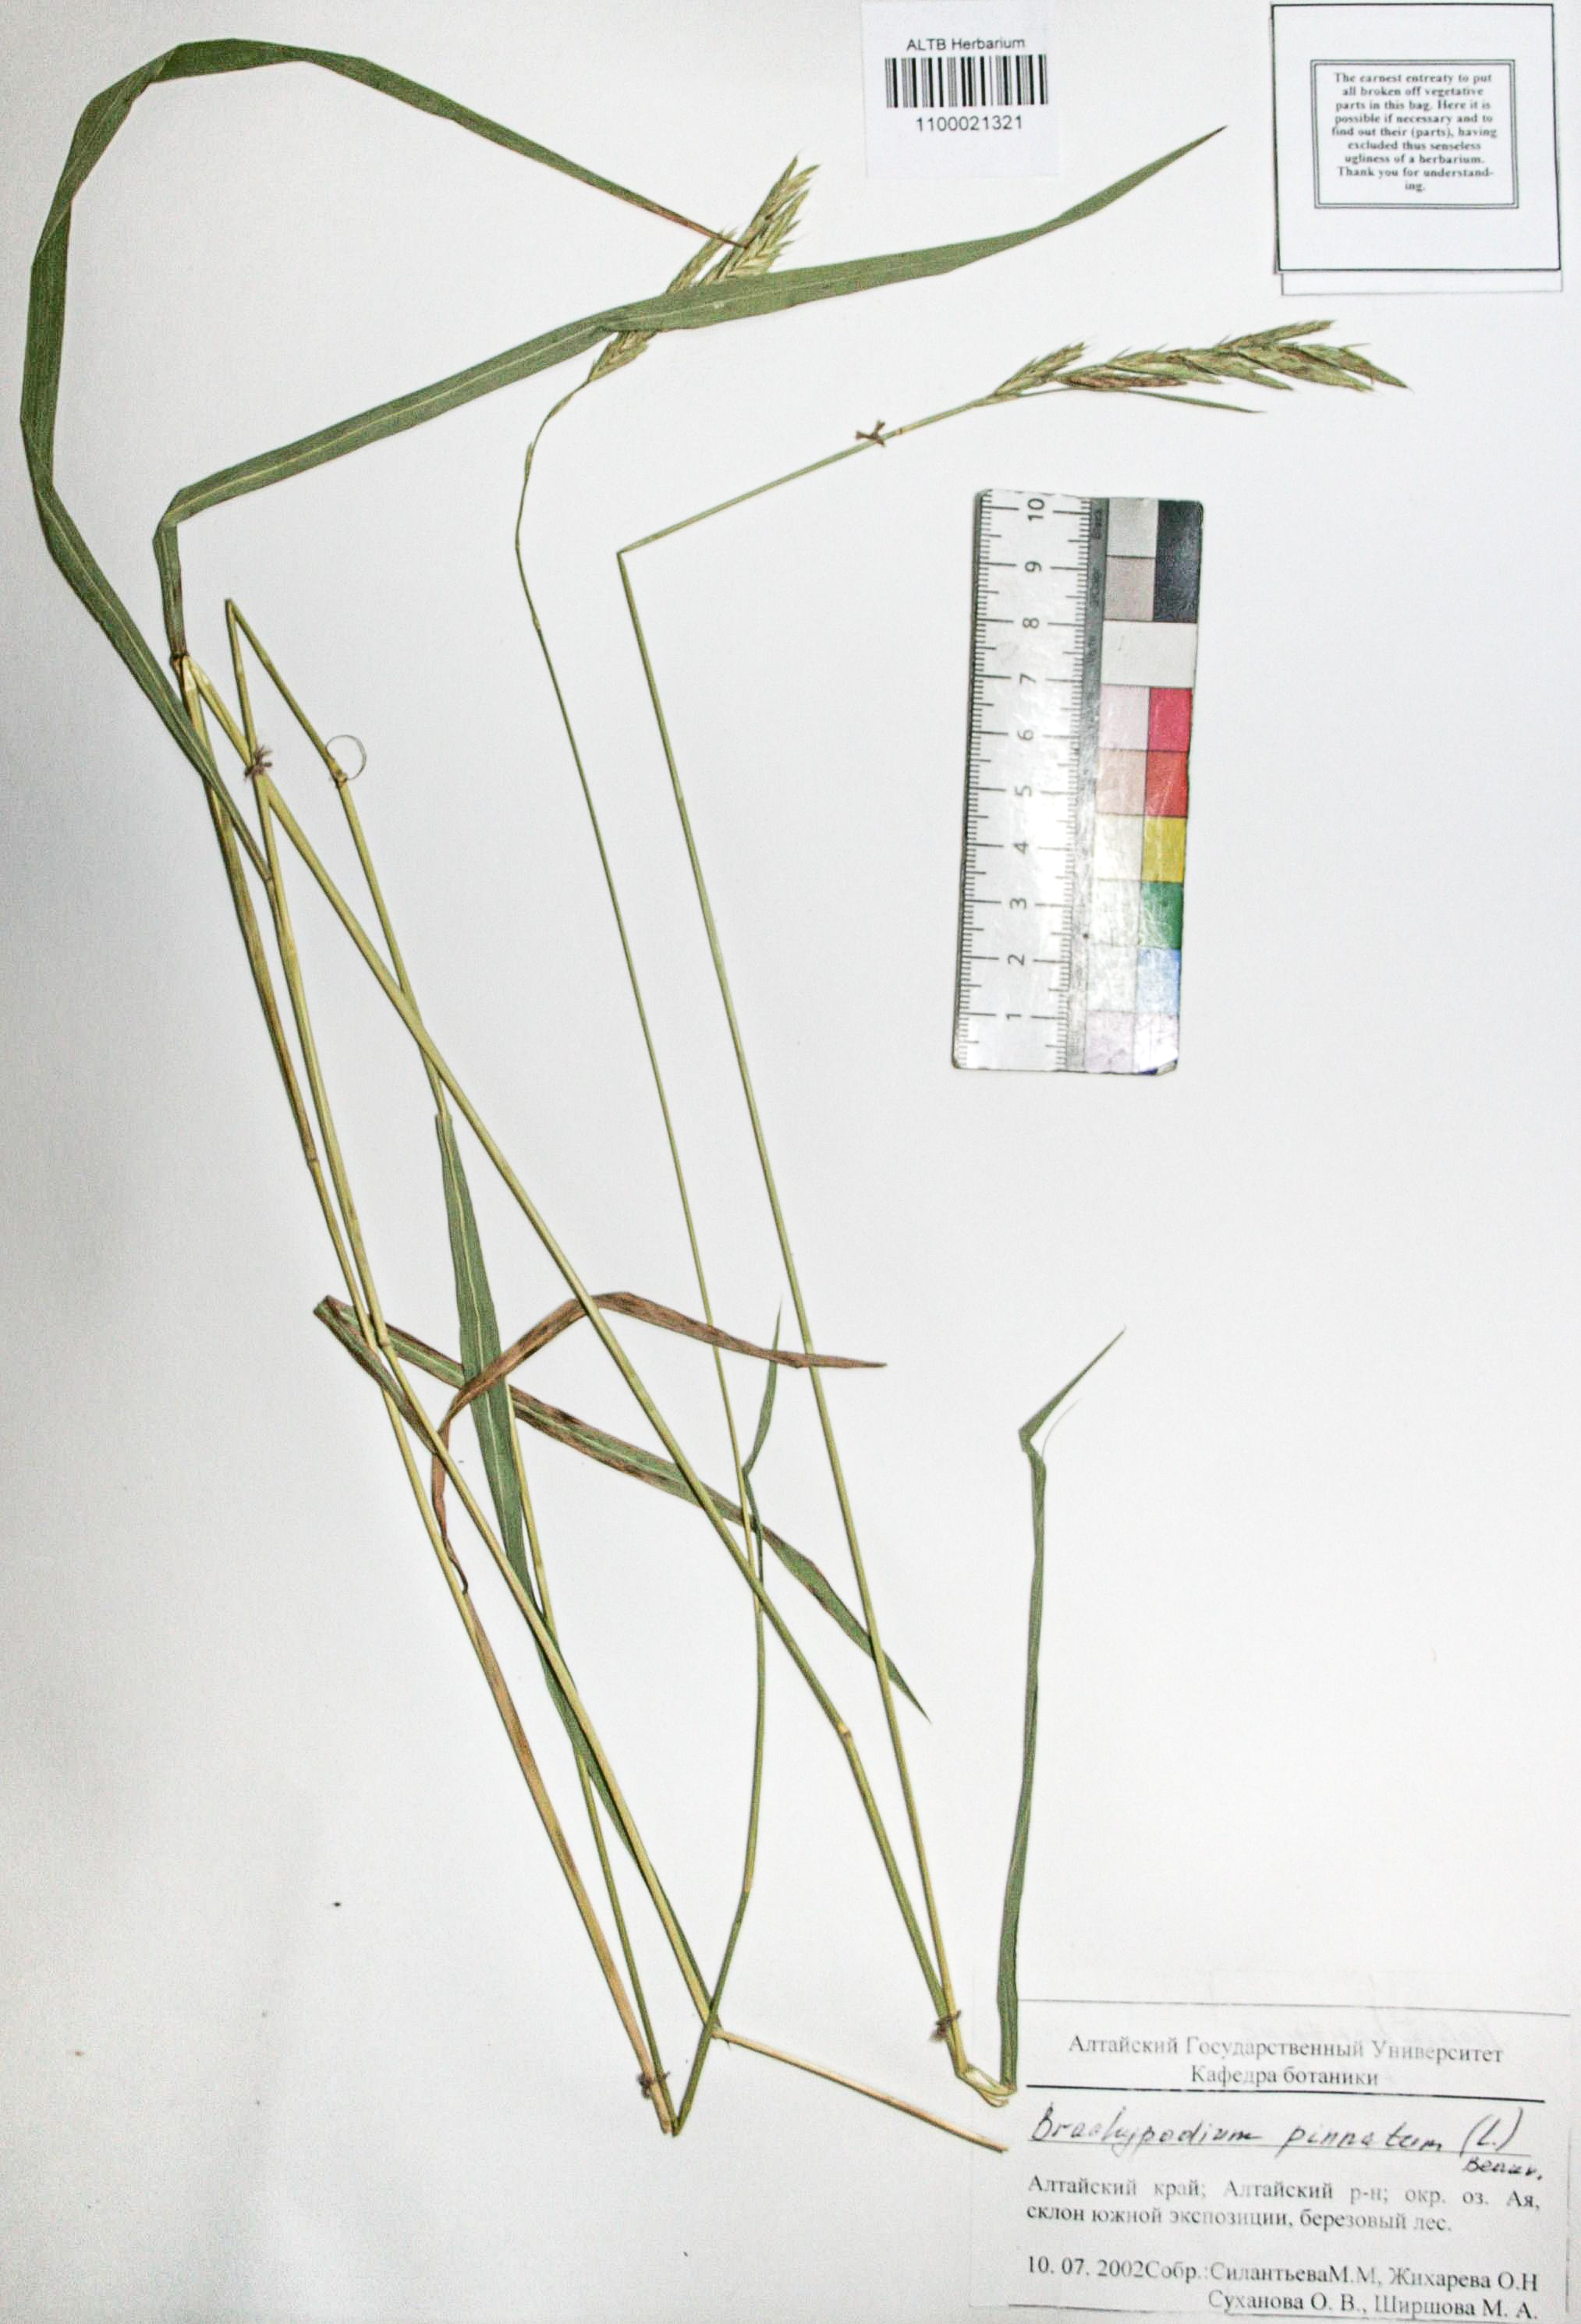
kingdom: Plantae
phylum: Tracheophyta
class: Liliopsida
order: Poales
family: Poaceae
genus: Brachypodium
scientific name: Brachypodium pinnatum
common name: Tor grass
